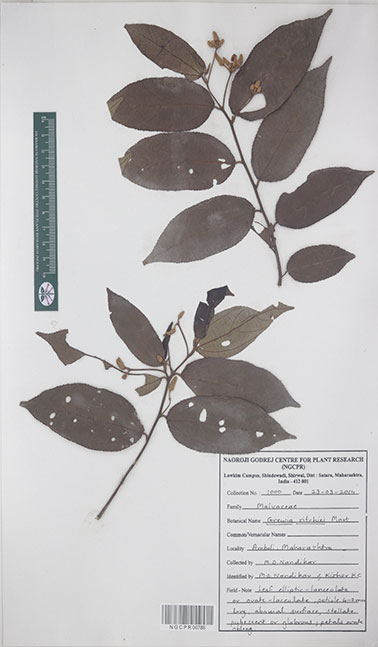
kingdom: Plantae
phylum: Tracheophyta
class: Magnoliopsida
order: Malvales
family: Malvaceae
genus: Grewia
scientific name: Grewia ritchiei
